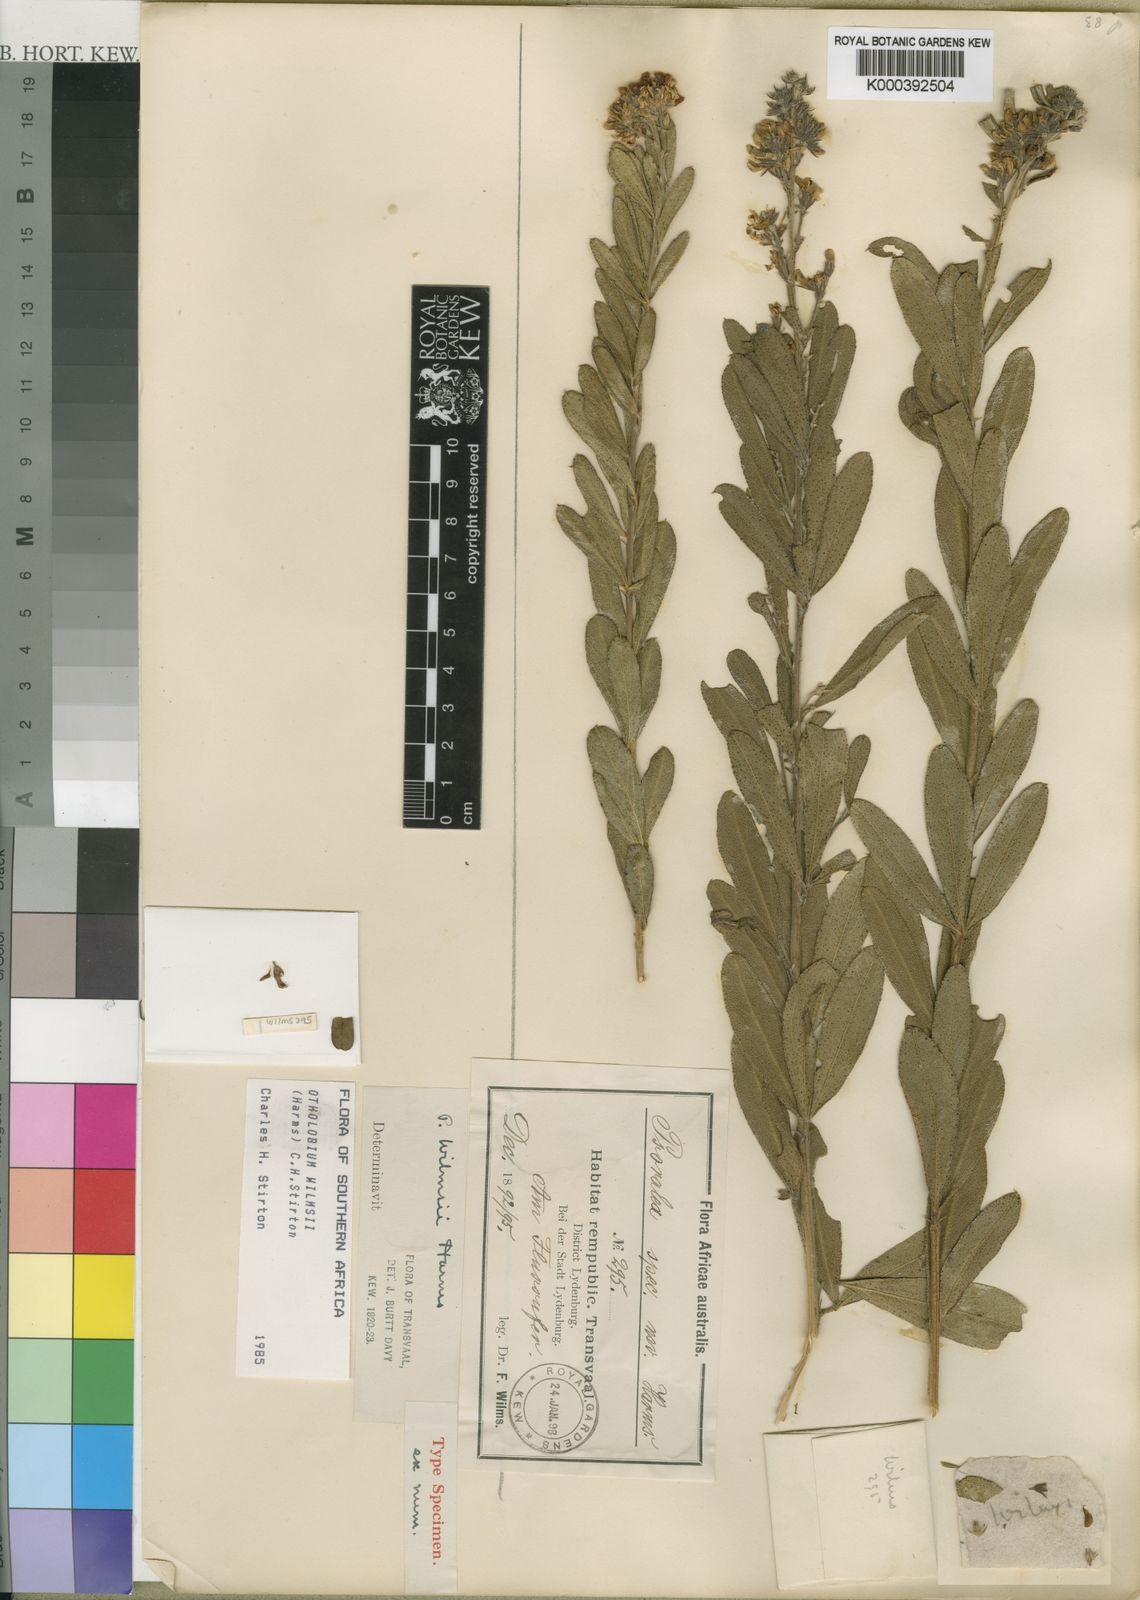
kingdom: Plantae
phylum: Tracheophyta
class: Magnoliopsida
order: Fabales
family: Fabaceae
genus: Psoralea
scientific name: Psoralea wilmsii
